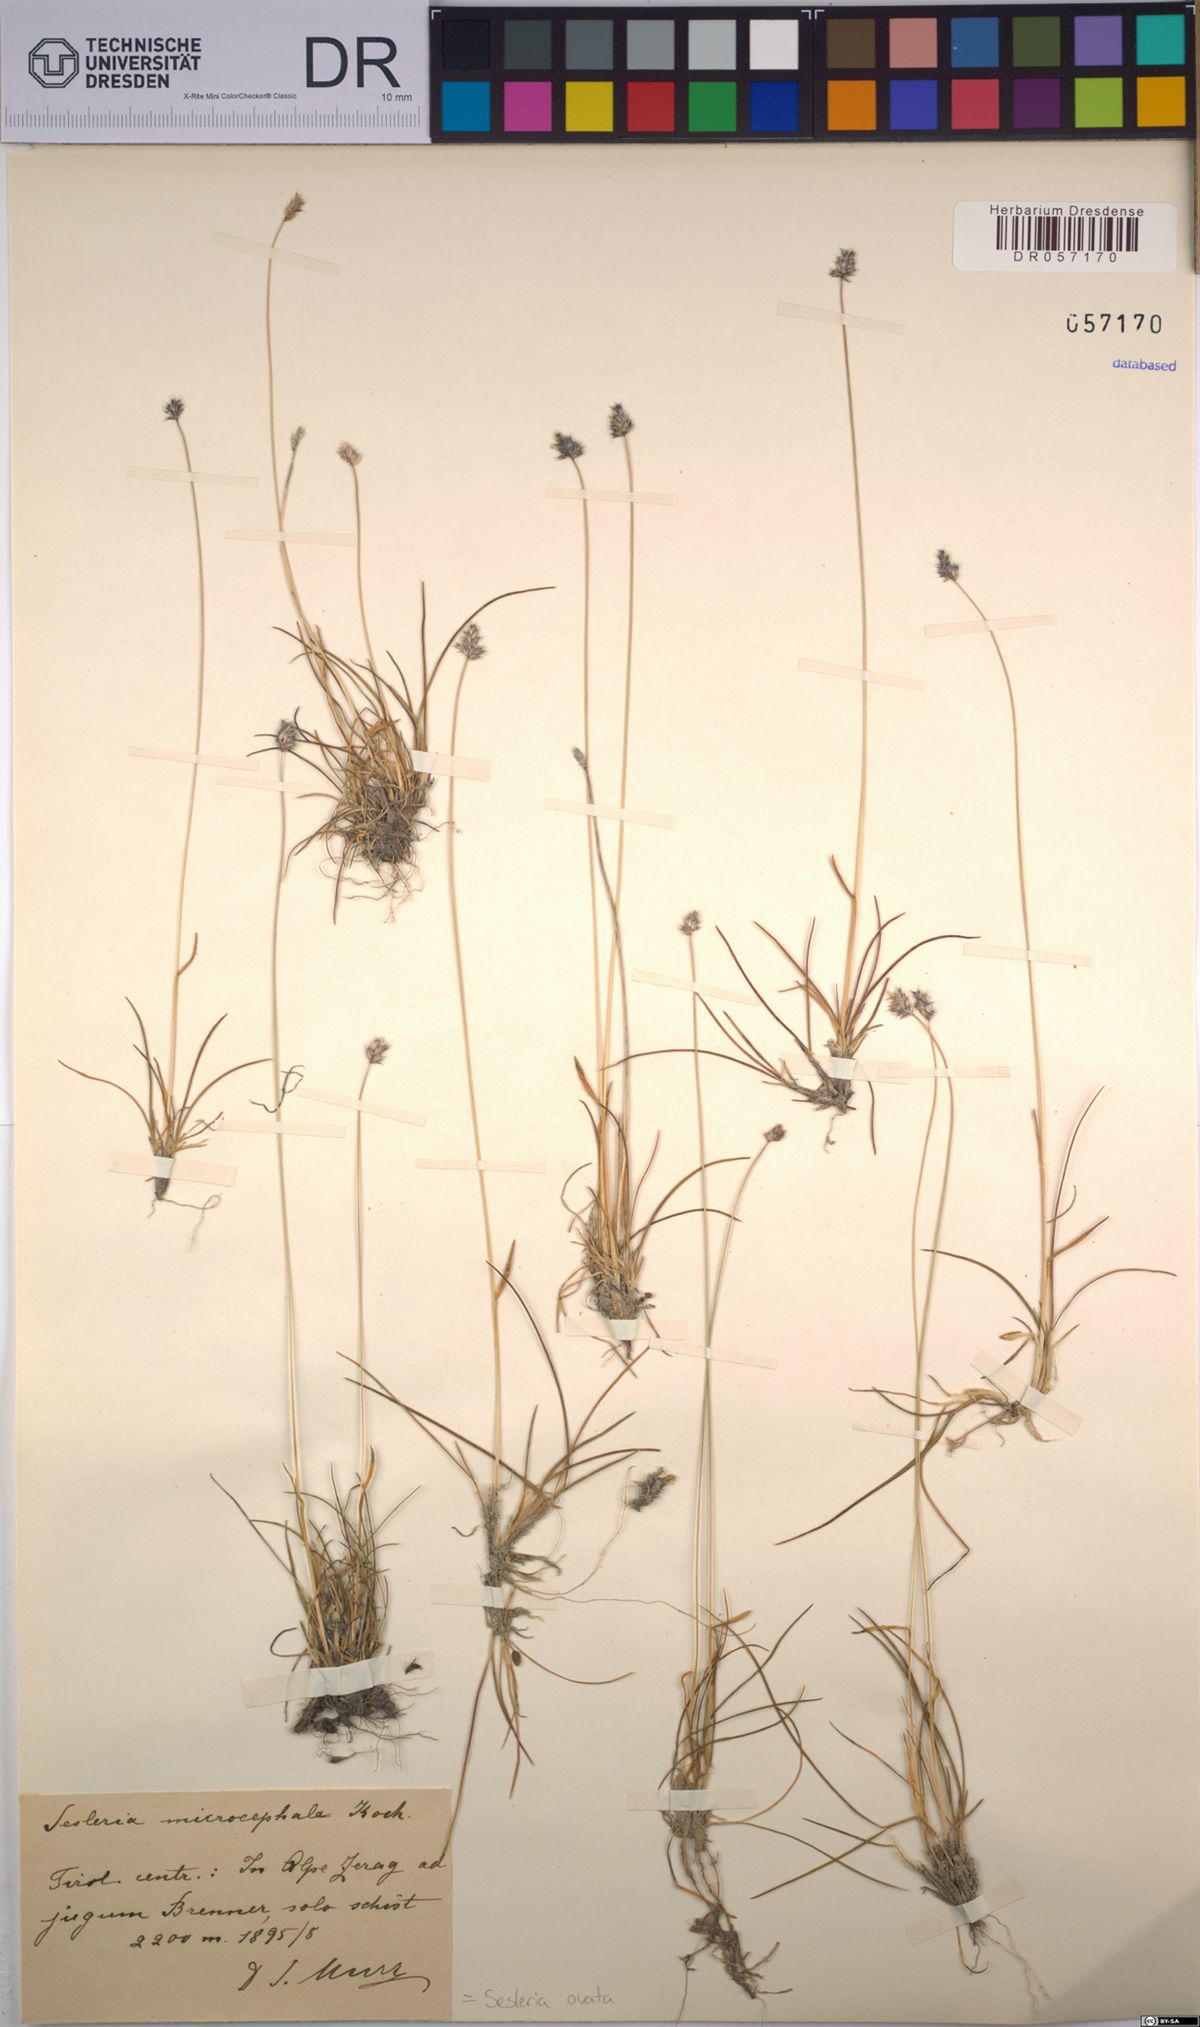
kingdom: Plantae
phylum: Tracheophyta
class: Liliopsida
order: Poales
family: Poaceae
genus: Psilathera
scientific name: Psilathera ovata
